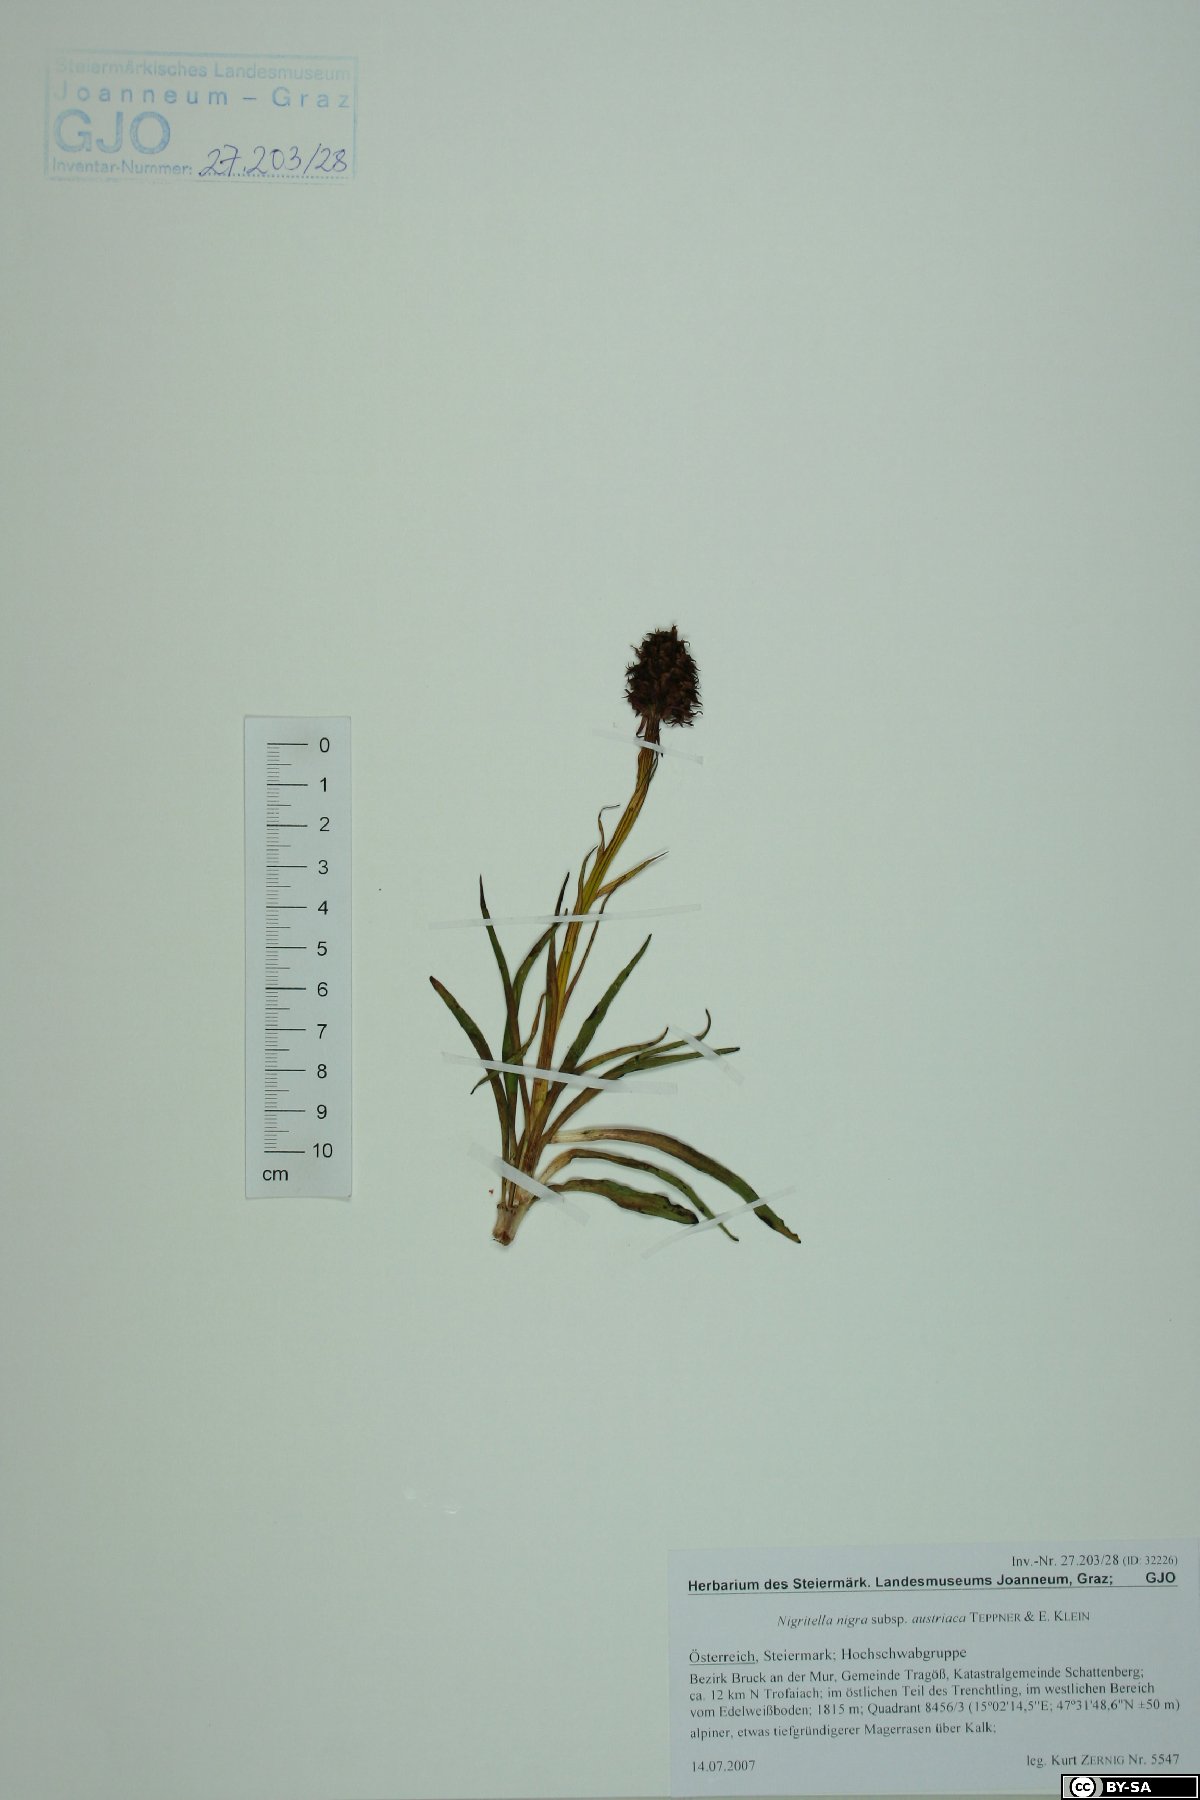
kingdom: Plantae
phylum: Tracheophyta
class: Liliopsida
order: Asparagales
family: Orchidaceae
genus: Gymnadenia
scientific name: Gymnadenia austriaca
